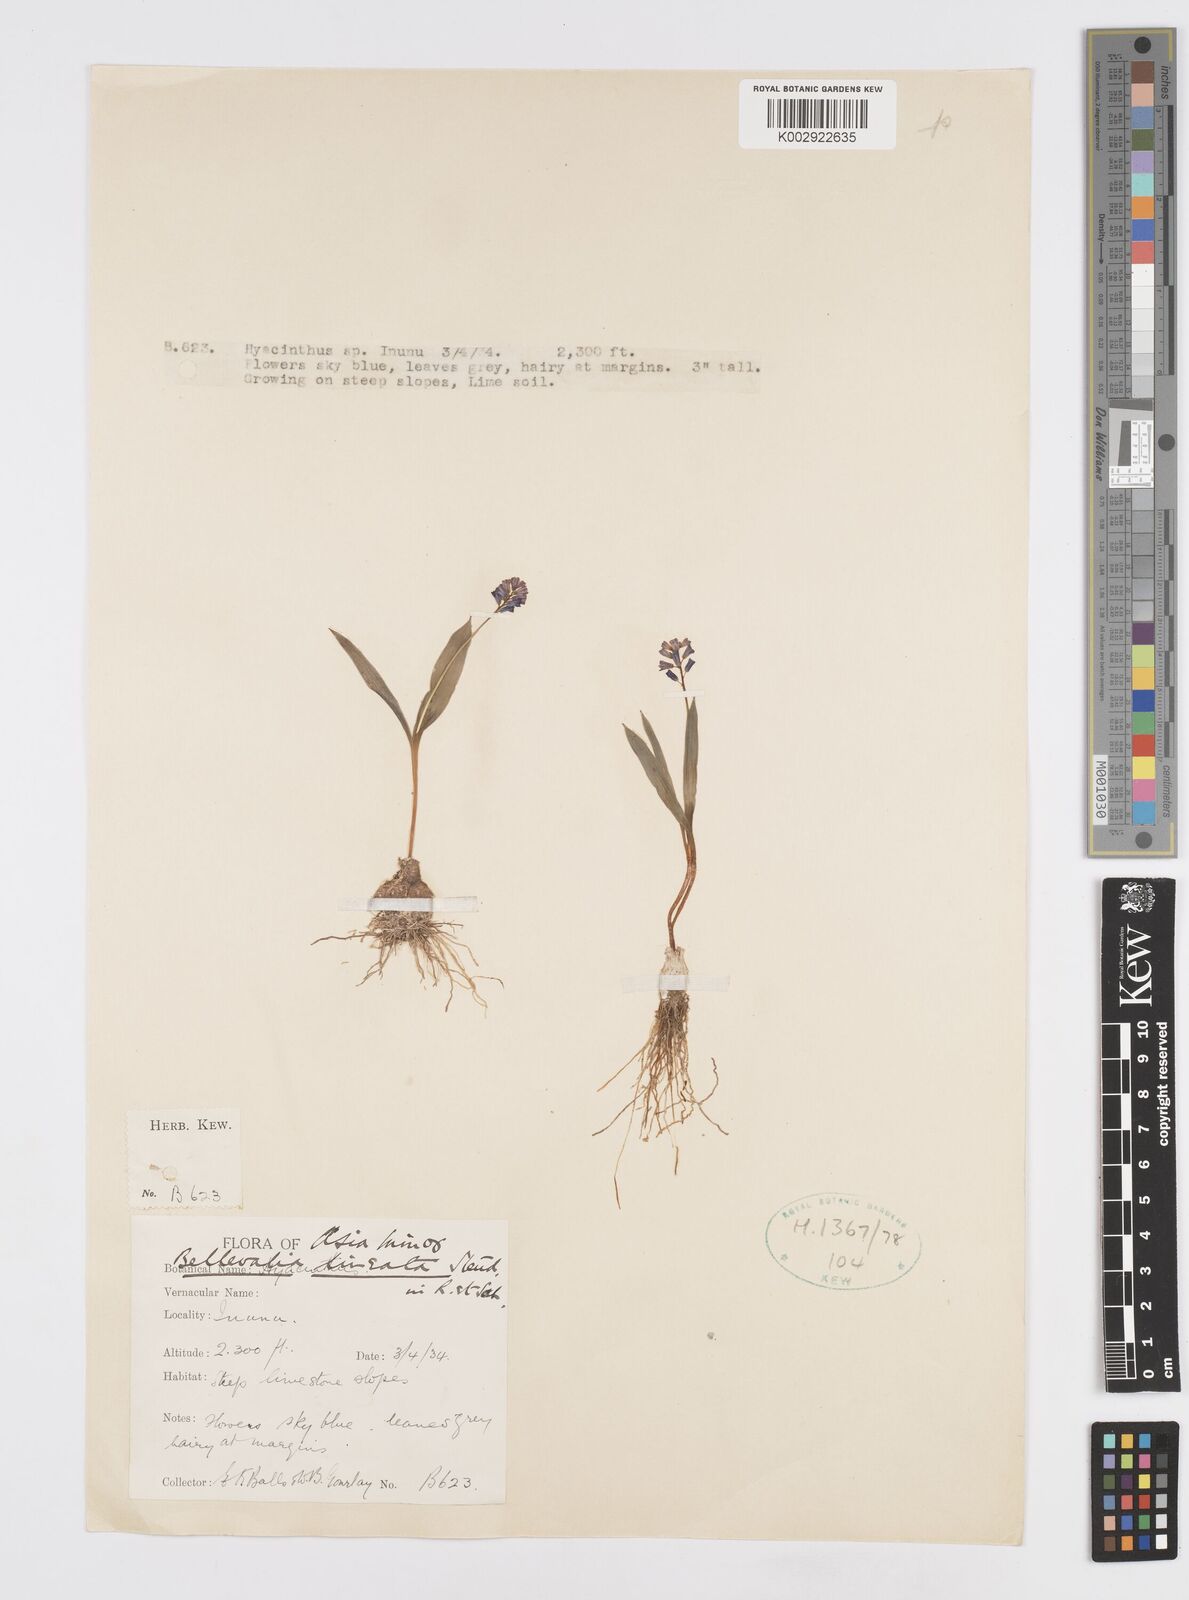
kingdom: Plantae
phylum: Tracheophyta
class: Liliopsida
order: Asparagales
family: Asparagaceae
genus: Hyacinthella
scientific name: Hyacinthella lineata
